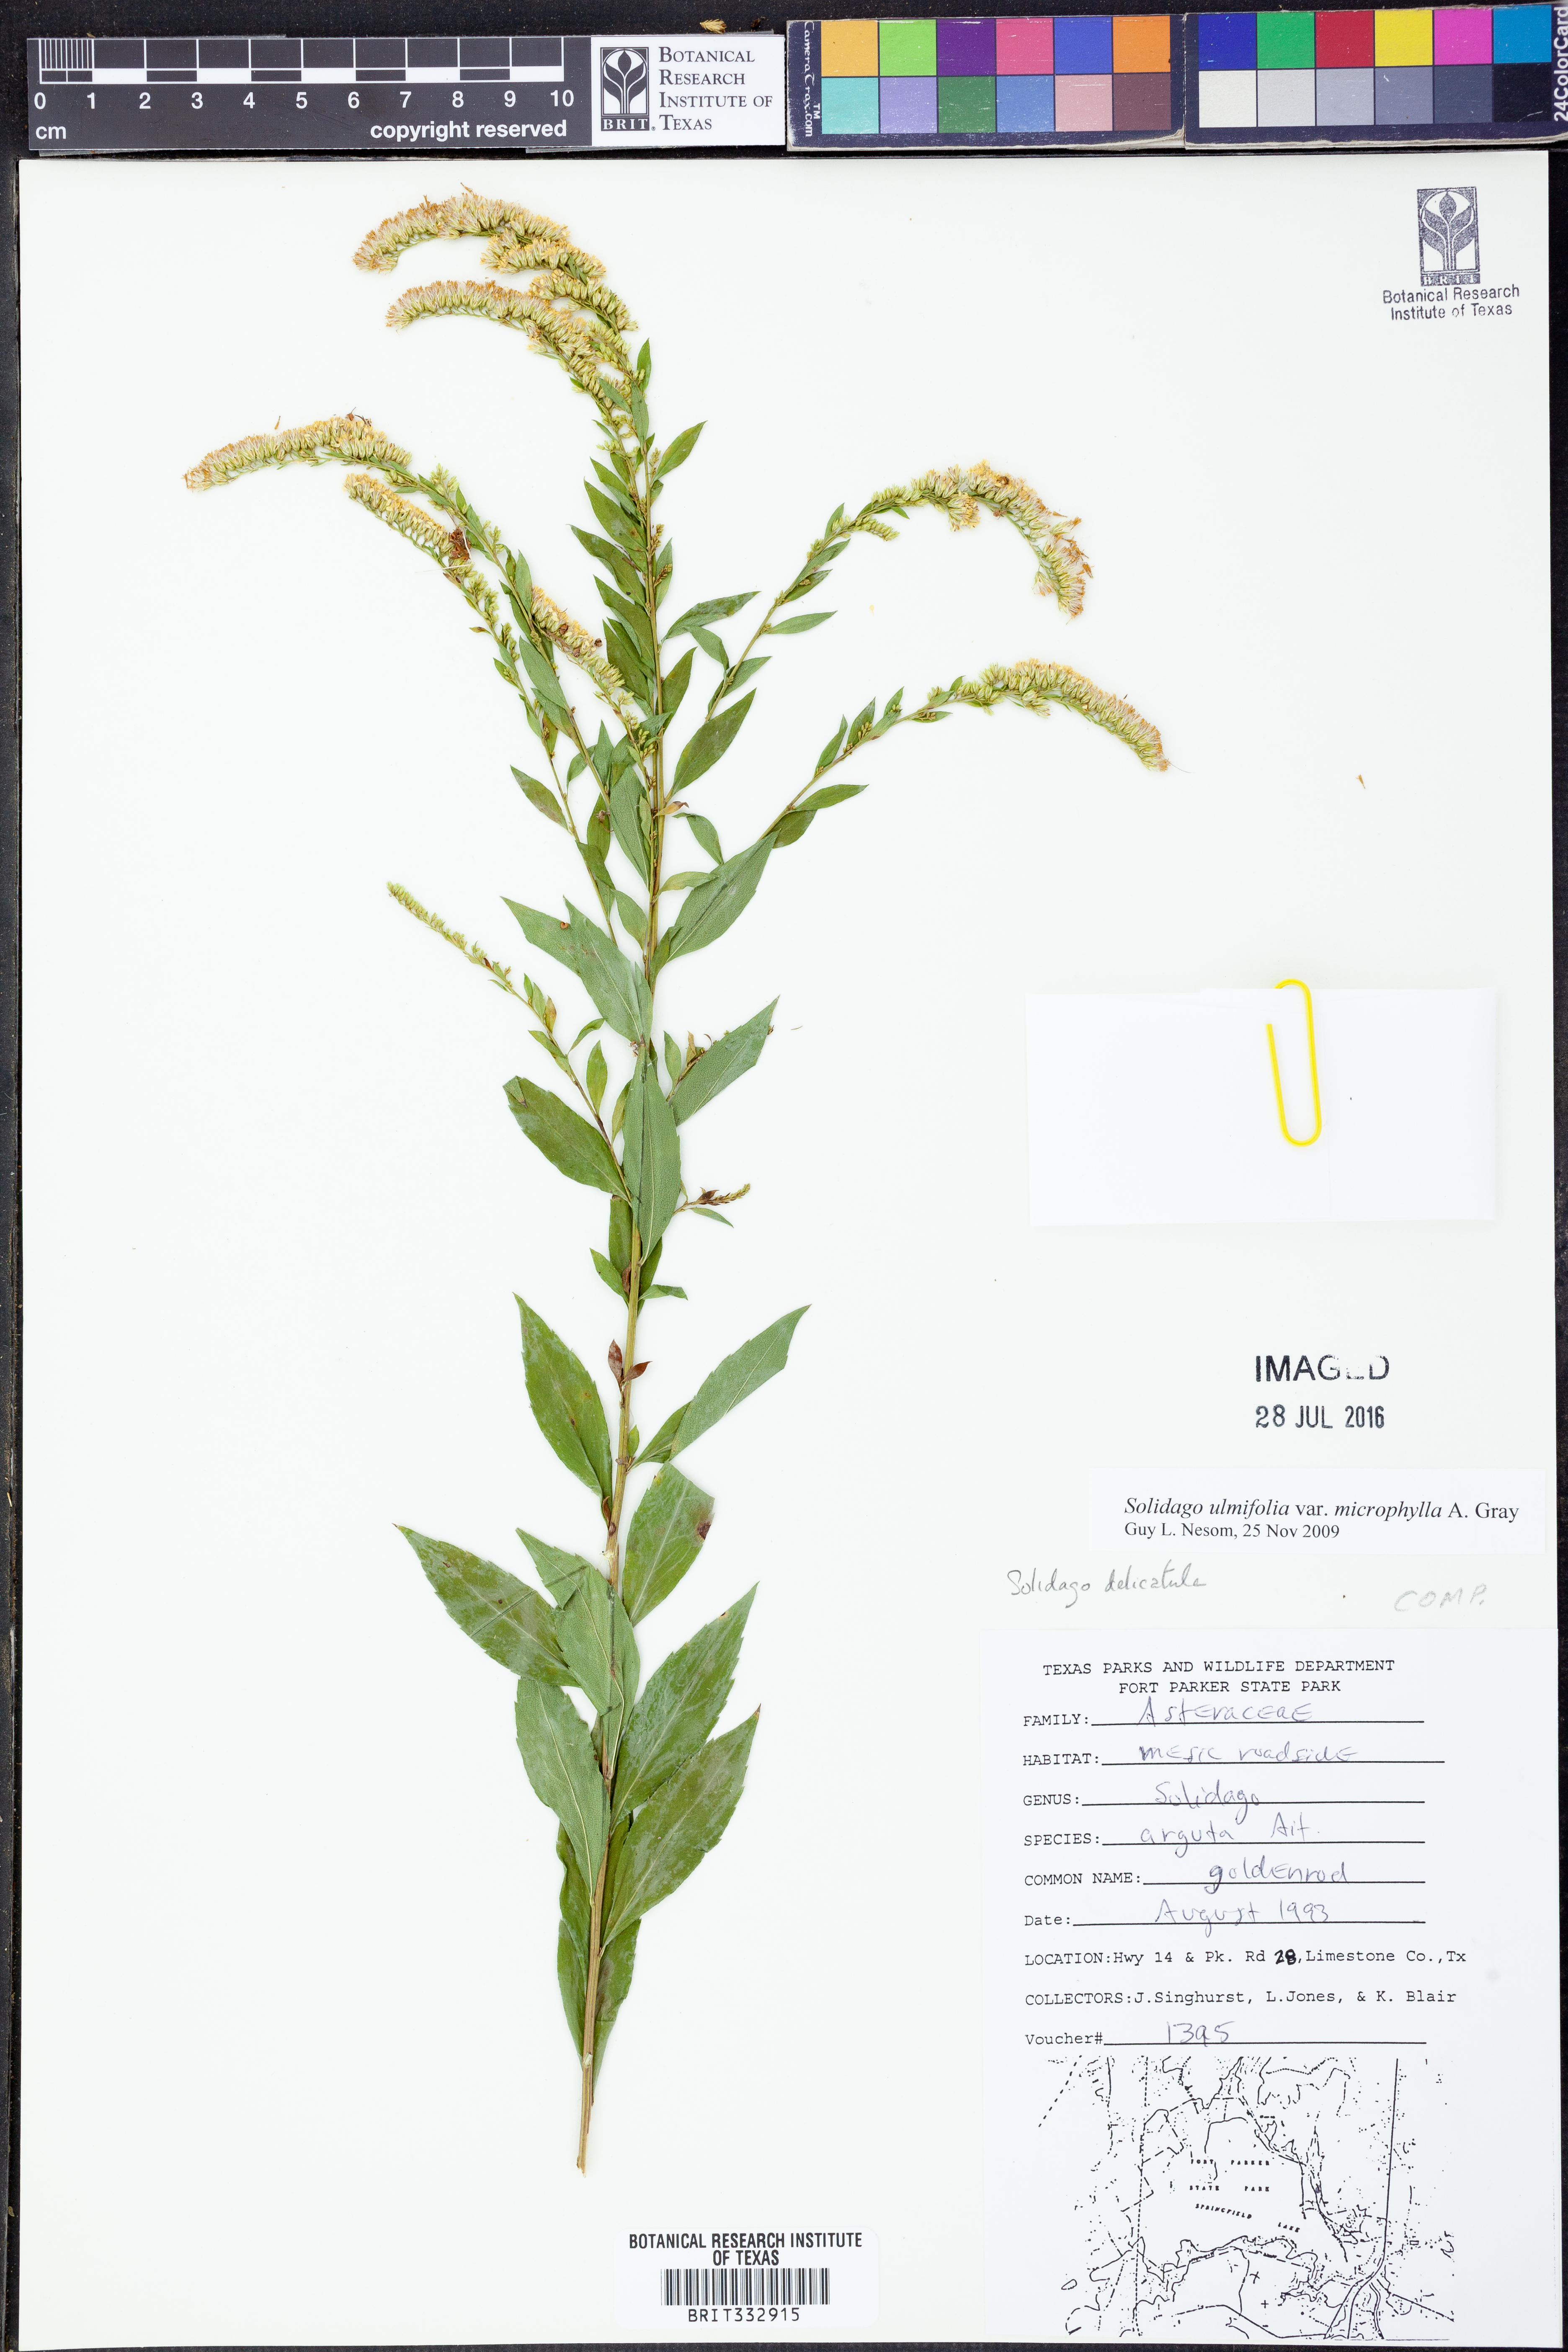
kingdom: Plantae
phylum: Tracheophyta
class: Magnoliopsida
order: Asterales
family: Asteraceae
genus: Solidago
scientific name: Solidago delicatula
